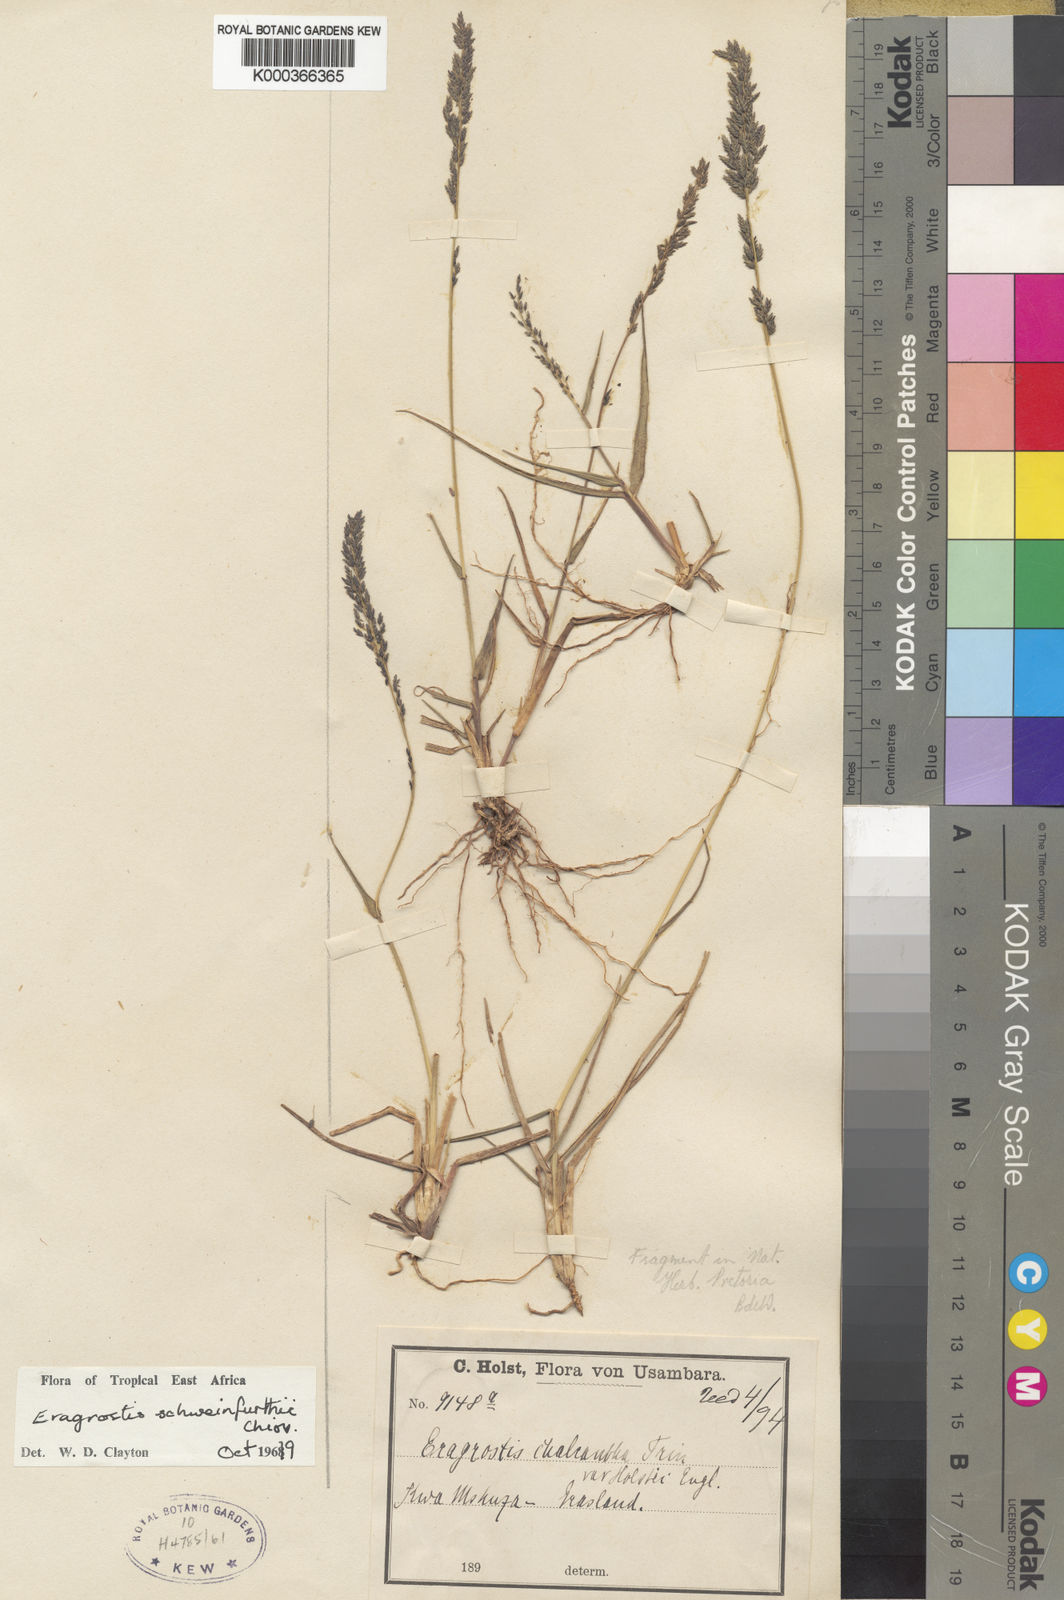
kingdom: Plantae
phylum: Tracheophyta
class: Liliopsida
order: Poales
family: Poaceae
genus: Eragrostis
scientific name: Eragrostis schweinfurthii
